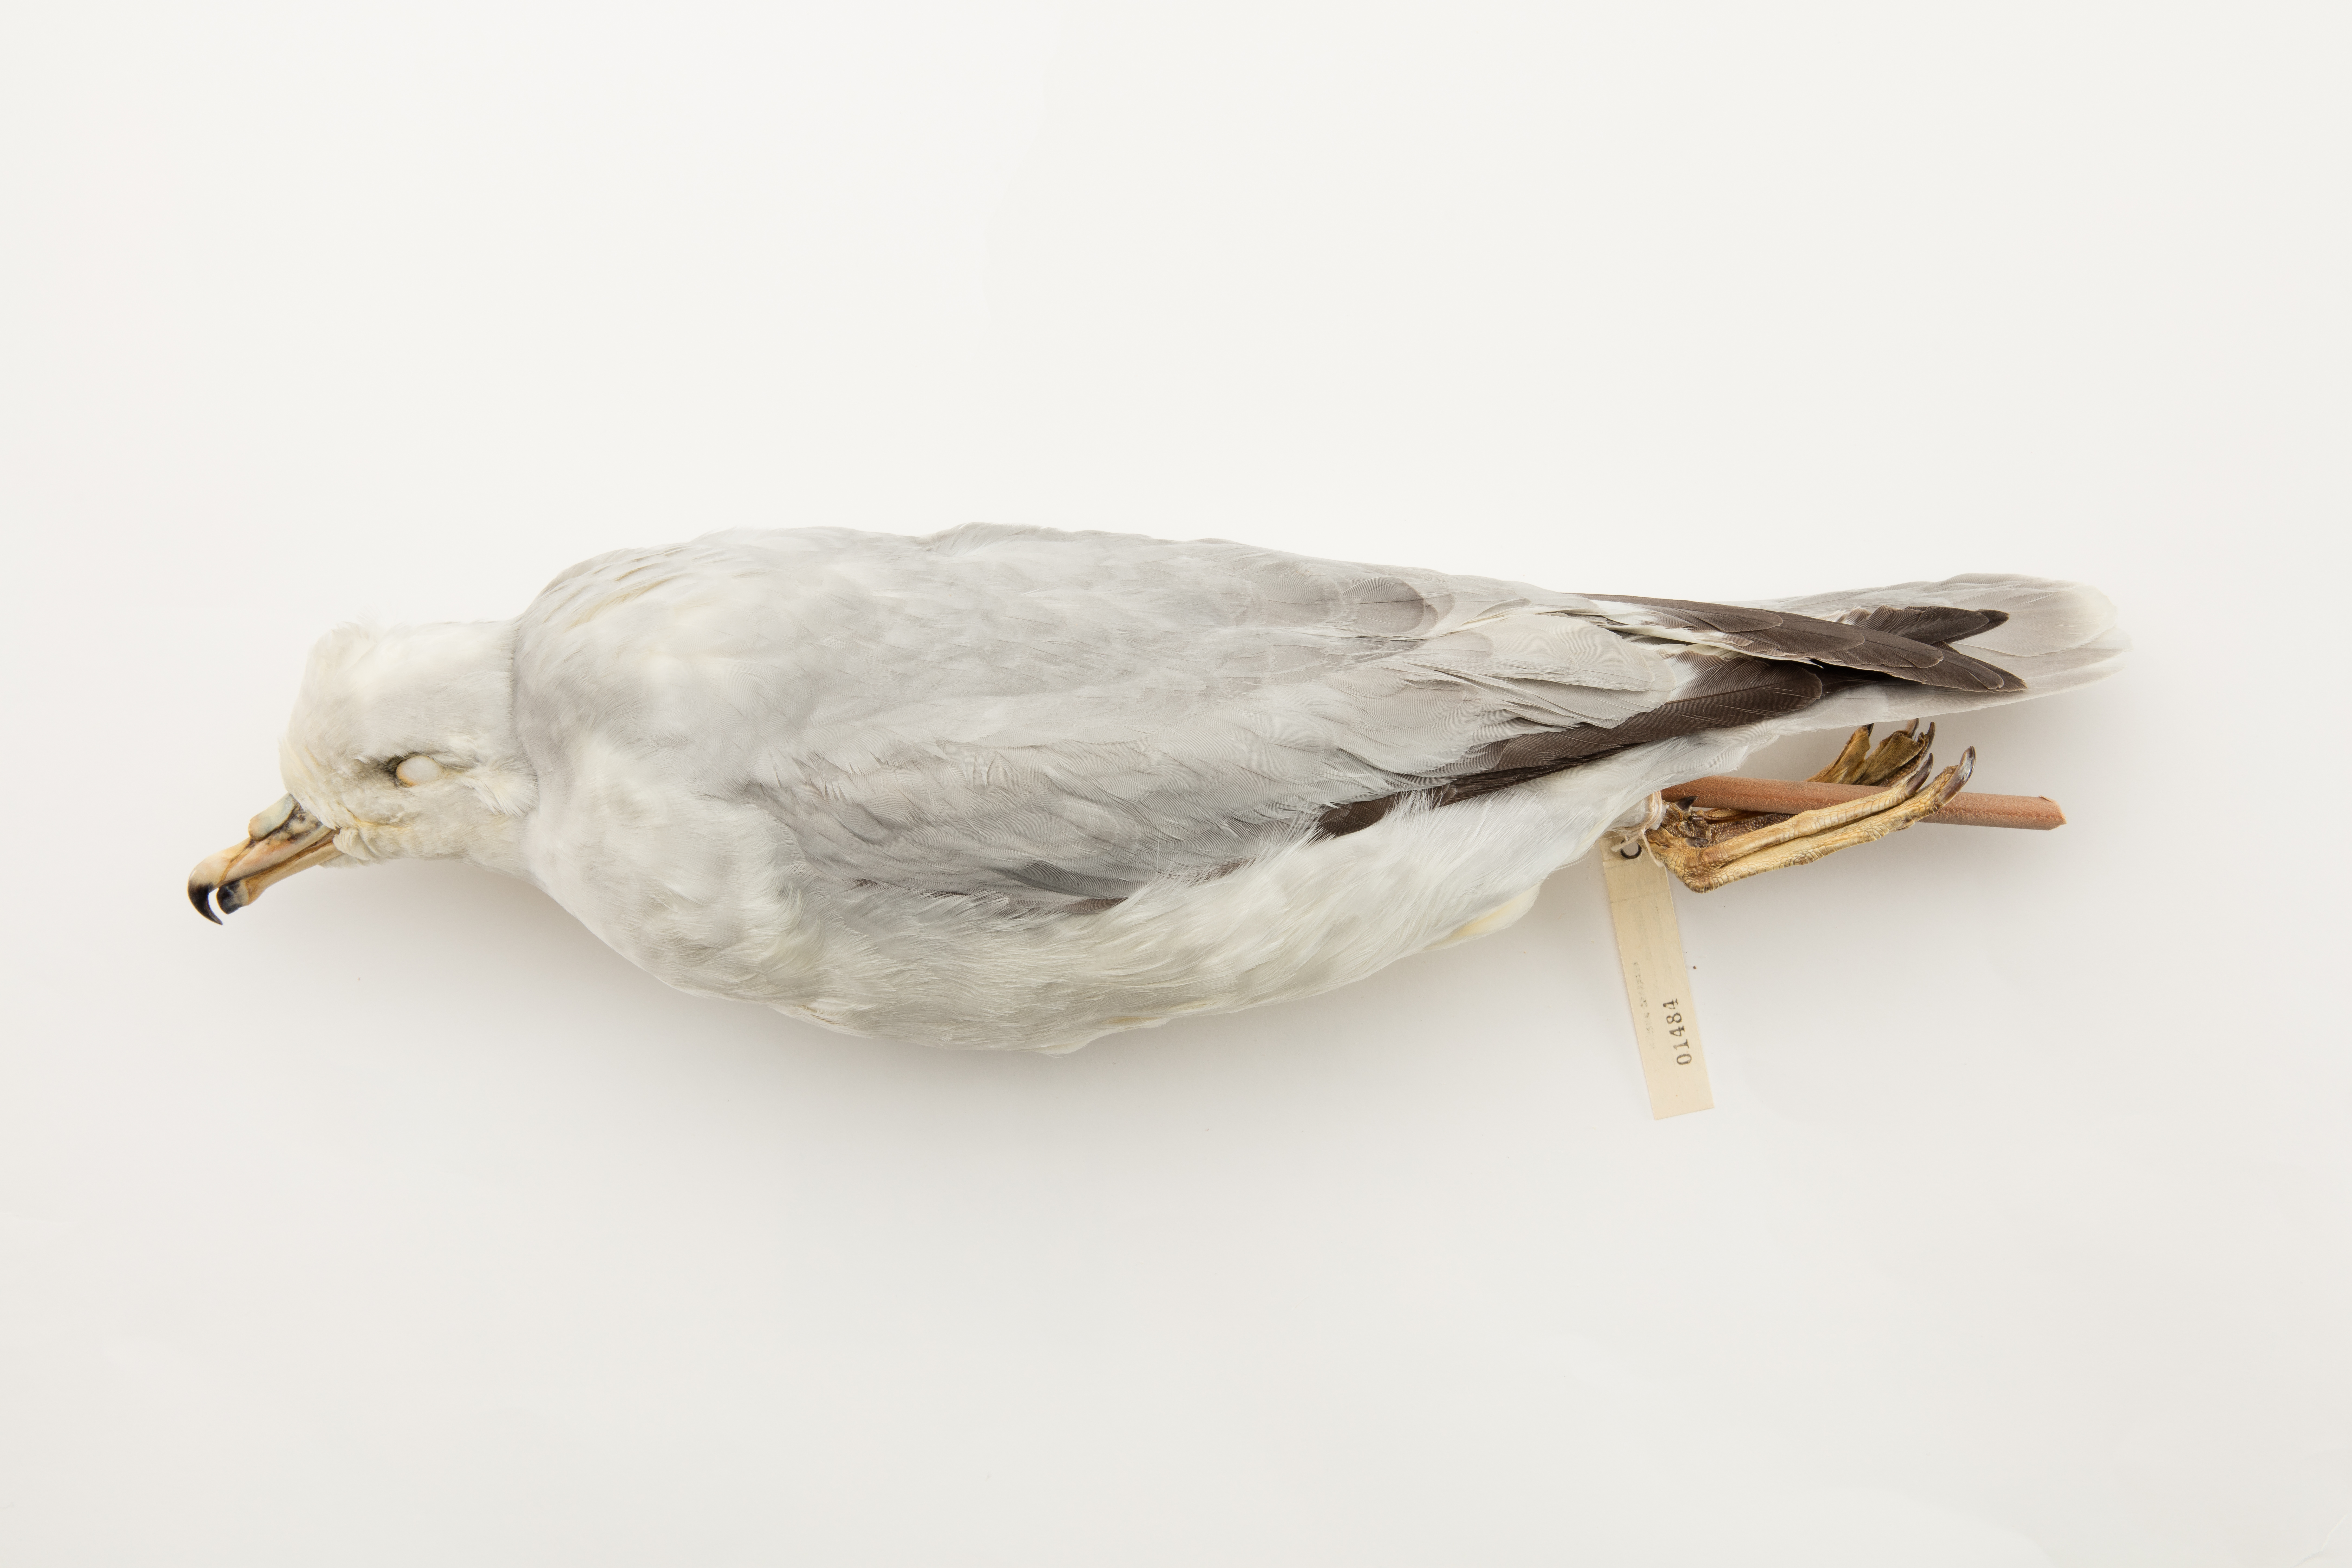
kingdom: Animalia
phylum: Chordata
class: Aves
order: Procellariiformes
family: Procellariidae
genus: Fulmarus
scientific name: Fulmarus glacialoides
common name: Southern fulmar
